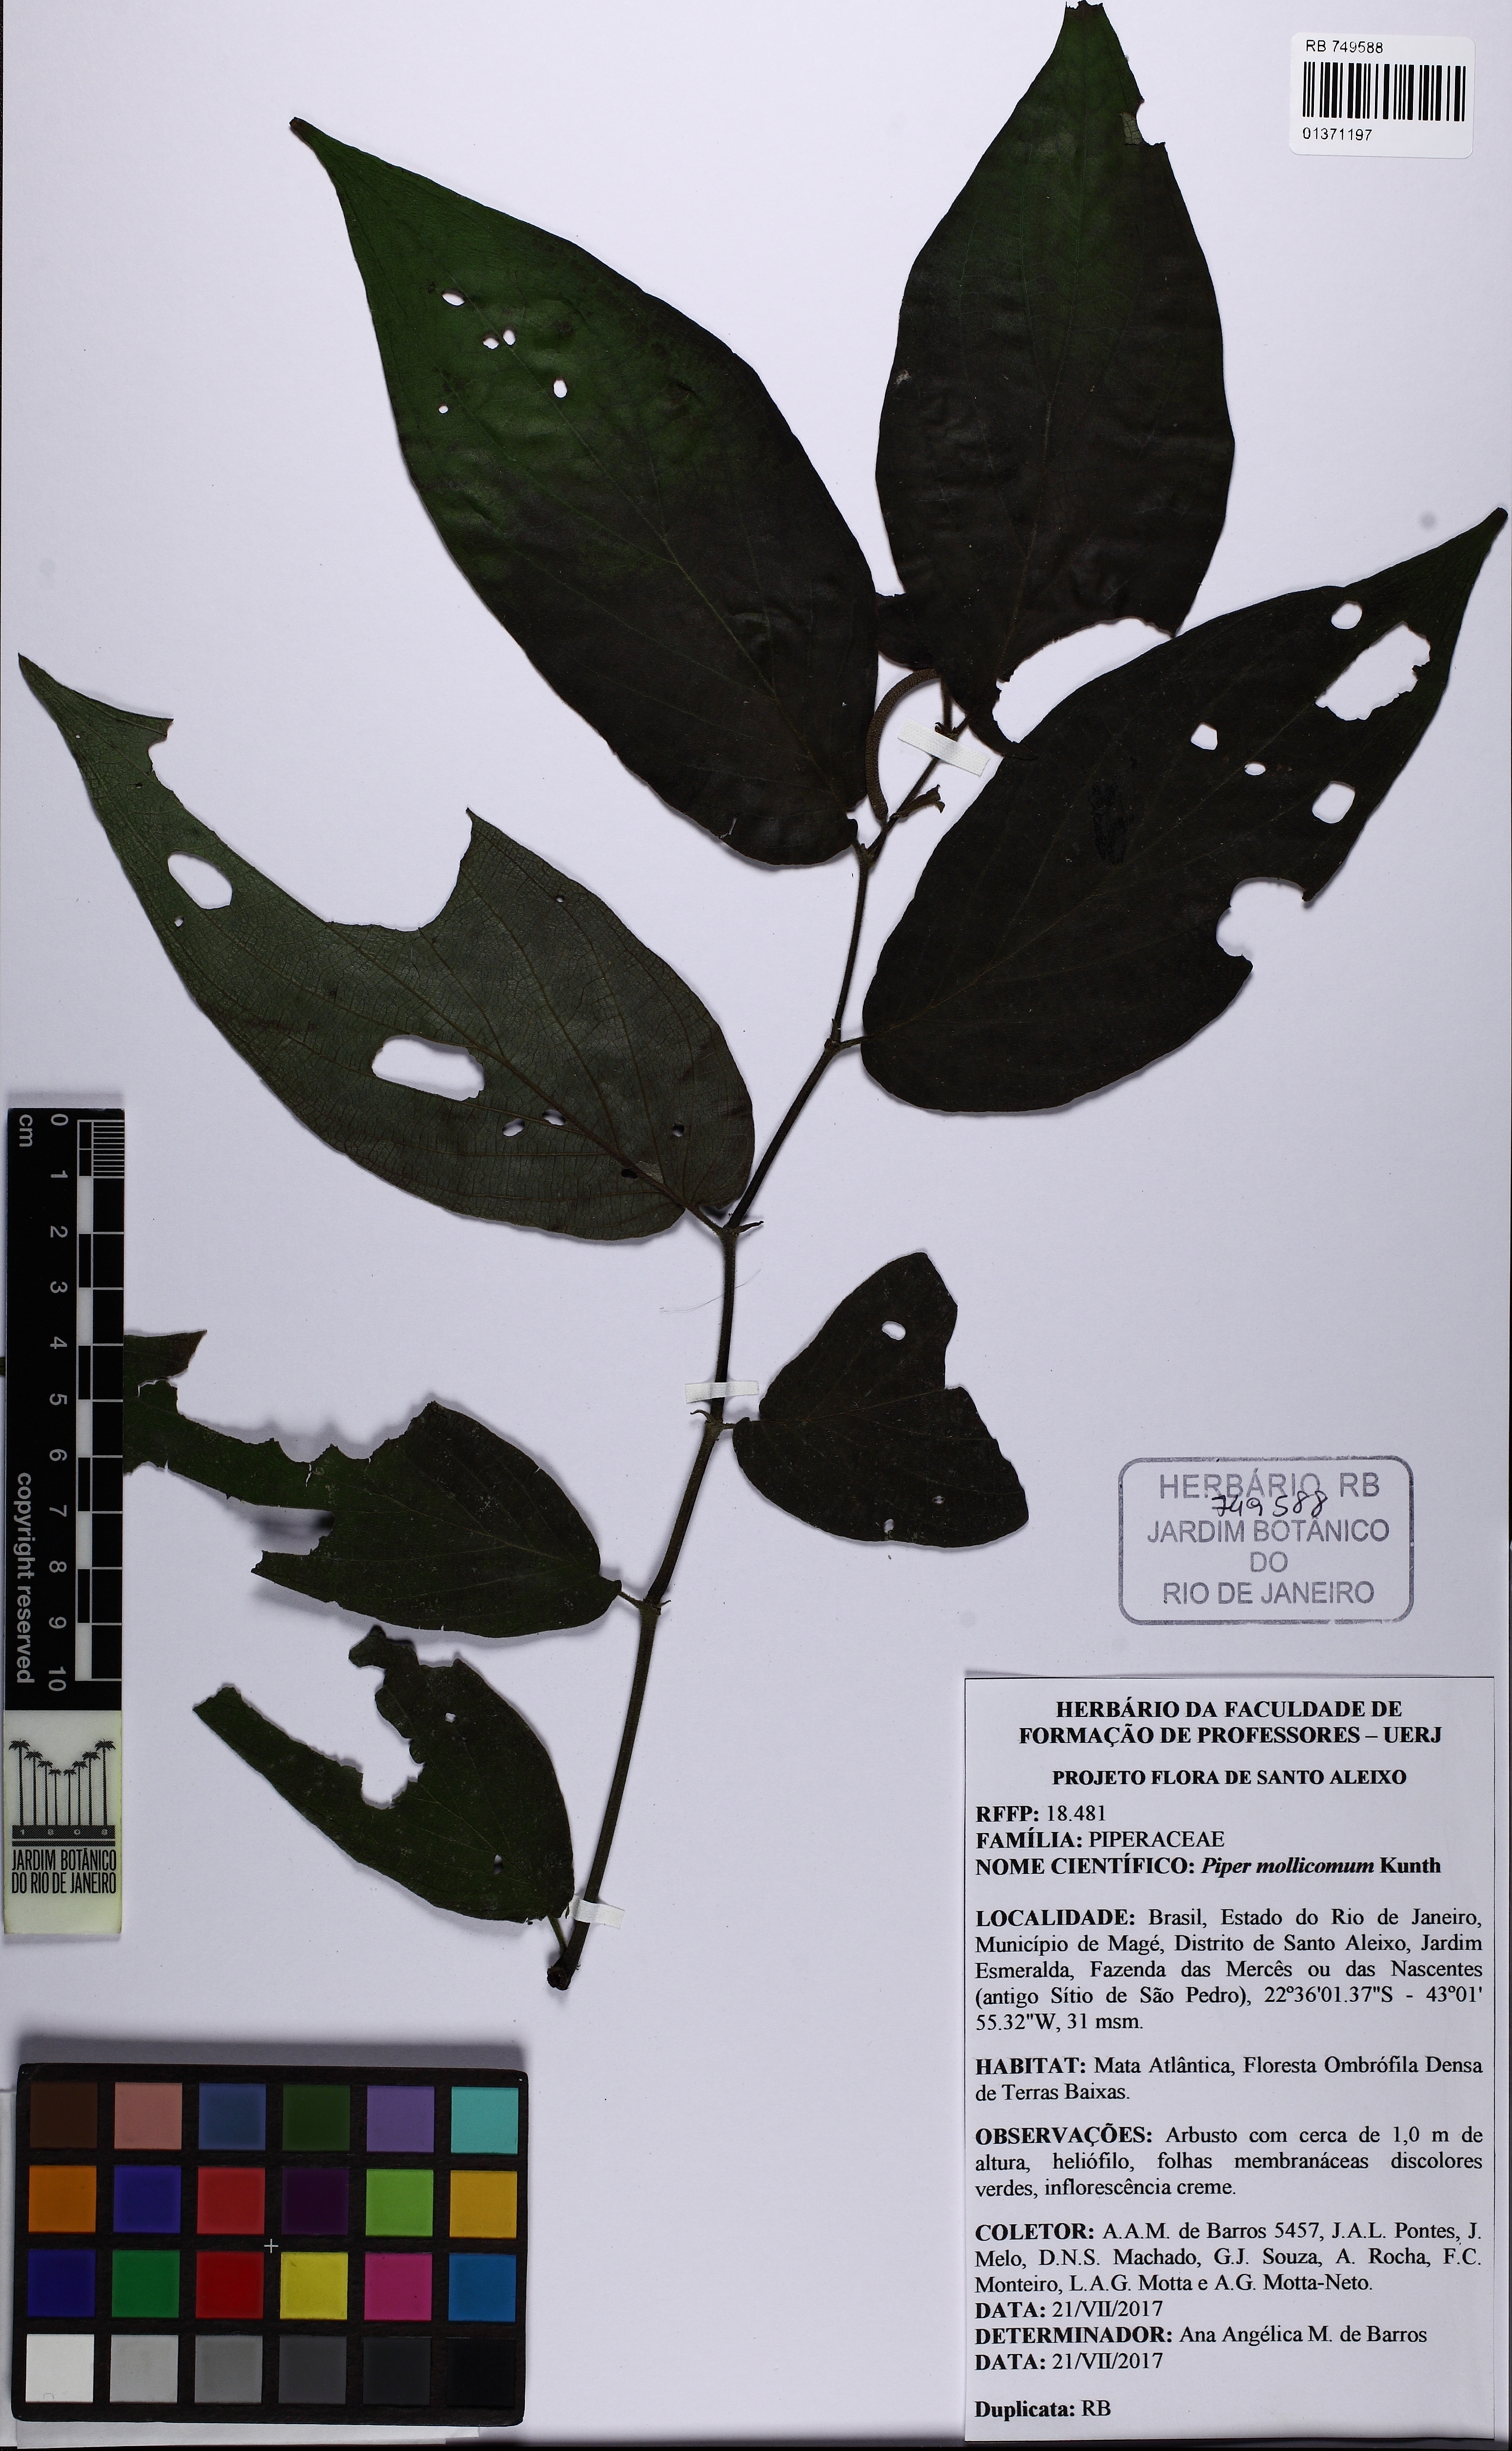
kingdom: Plantae
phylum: Tracheophyta
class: Magnoliopsida
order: Piperales
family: Piperaceae
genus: Piper
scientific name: Piper mollicomum
